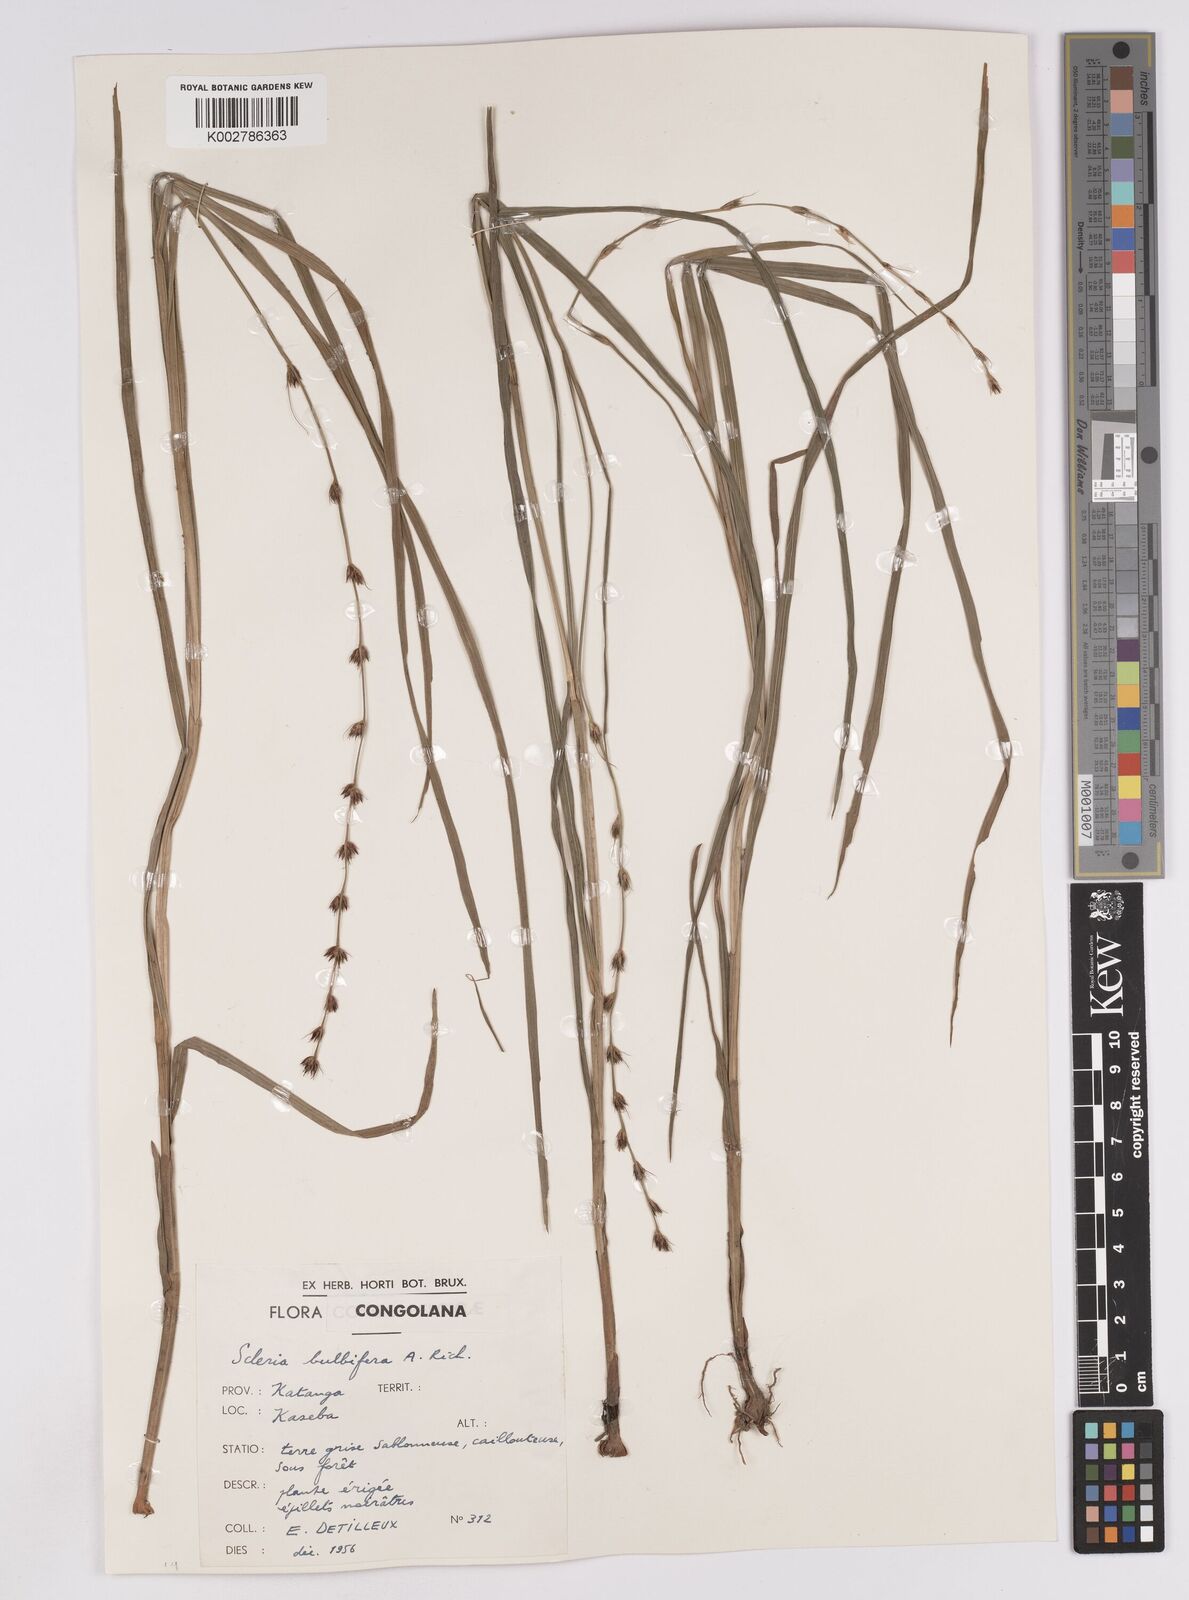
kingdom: Plantae
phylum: Tracheophyta
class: Liliopsida
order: Poales
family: Cyperaceae
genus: Scleria
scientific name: Scleria bulbifera
